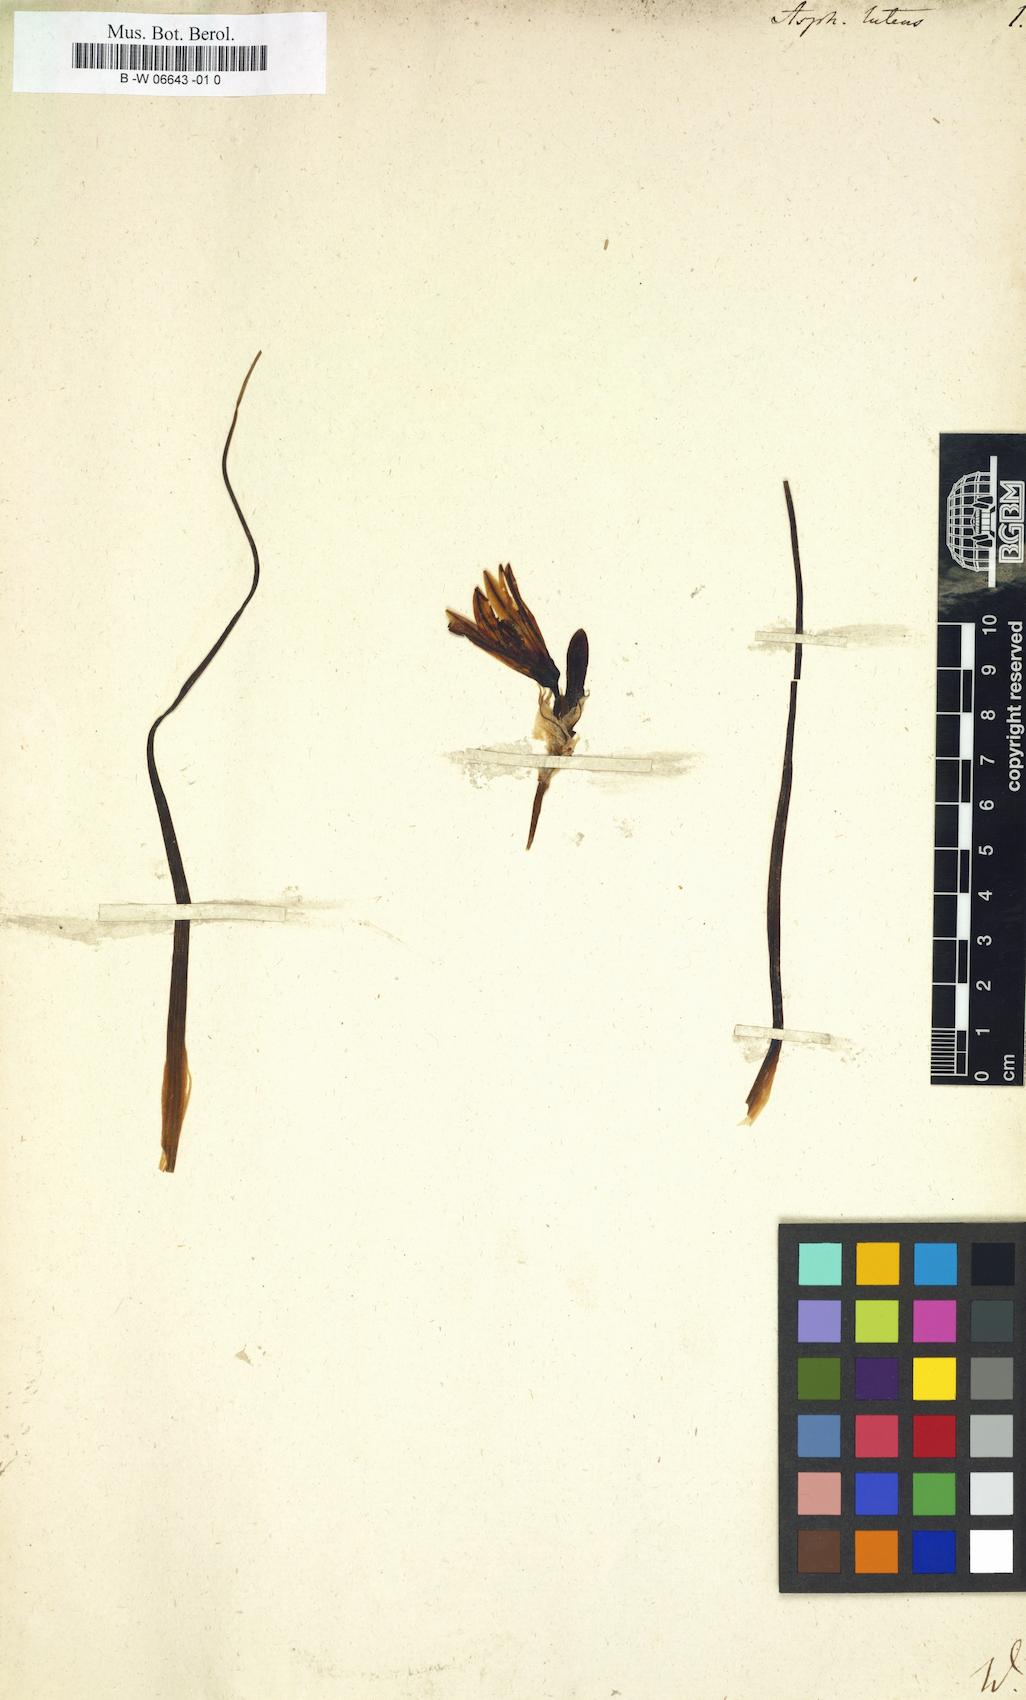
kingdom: Plantae
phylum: Tracheophyta
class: Liliopsida
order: Asparagales
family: Asphodelaceae
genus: Asphodeline
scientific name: Asphodeline lutea
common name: Yellow asphodel
